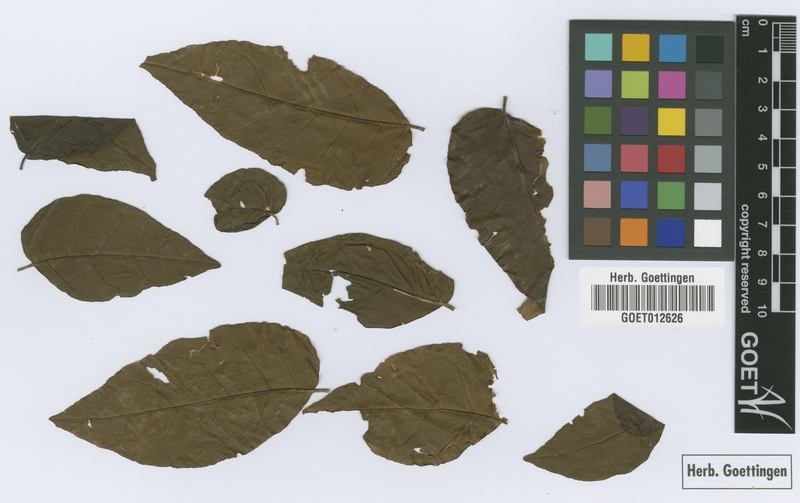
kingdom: Plantae
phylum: Tracheophyta
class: Magnoliopsida
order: Sapindales
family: Rutaceae
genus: Micromelum
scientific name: Micromelum minutum
